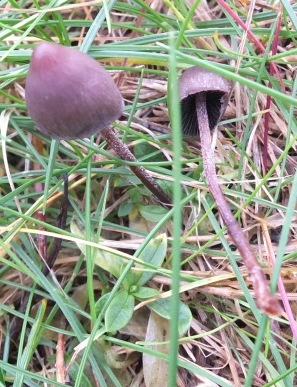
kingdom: Fungi
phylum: Basidiomycota
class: Agaricomycetes
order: Agaricales
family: Bolbitiaceae
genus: Panaeolus
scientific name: Panaeolus acuminatus
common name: høj glanshat
